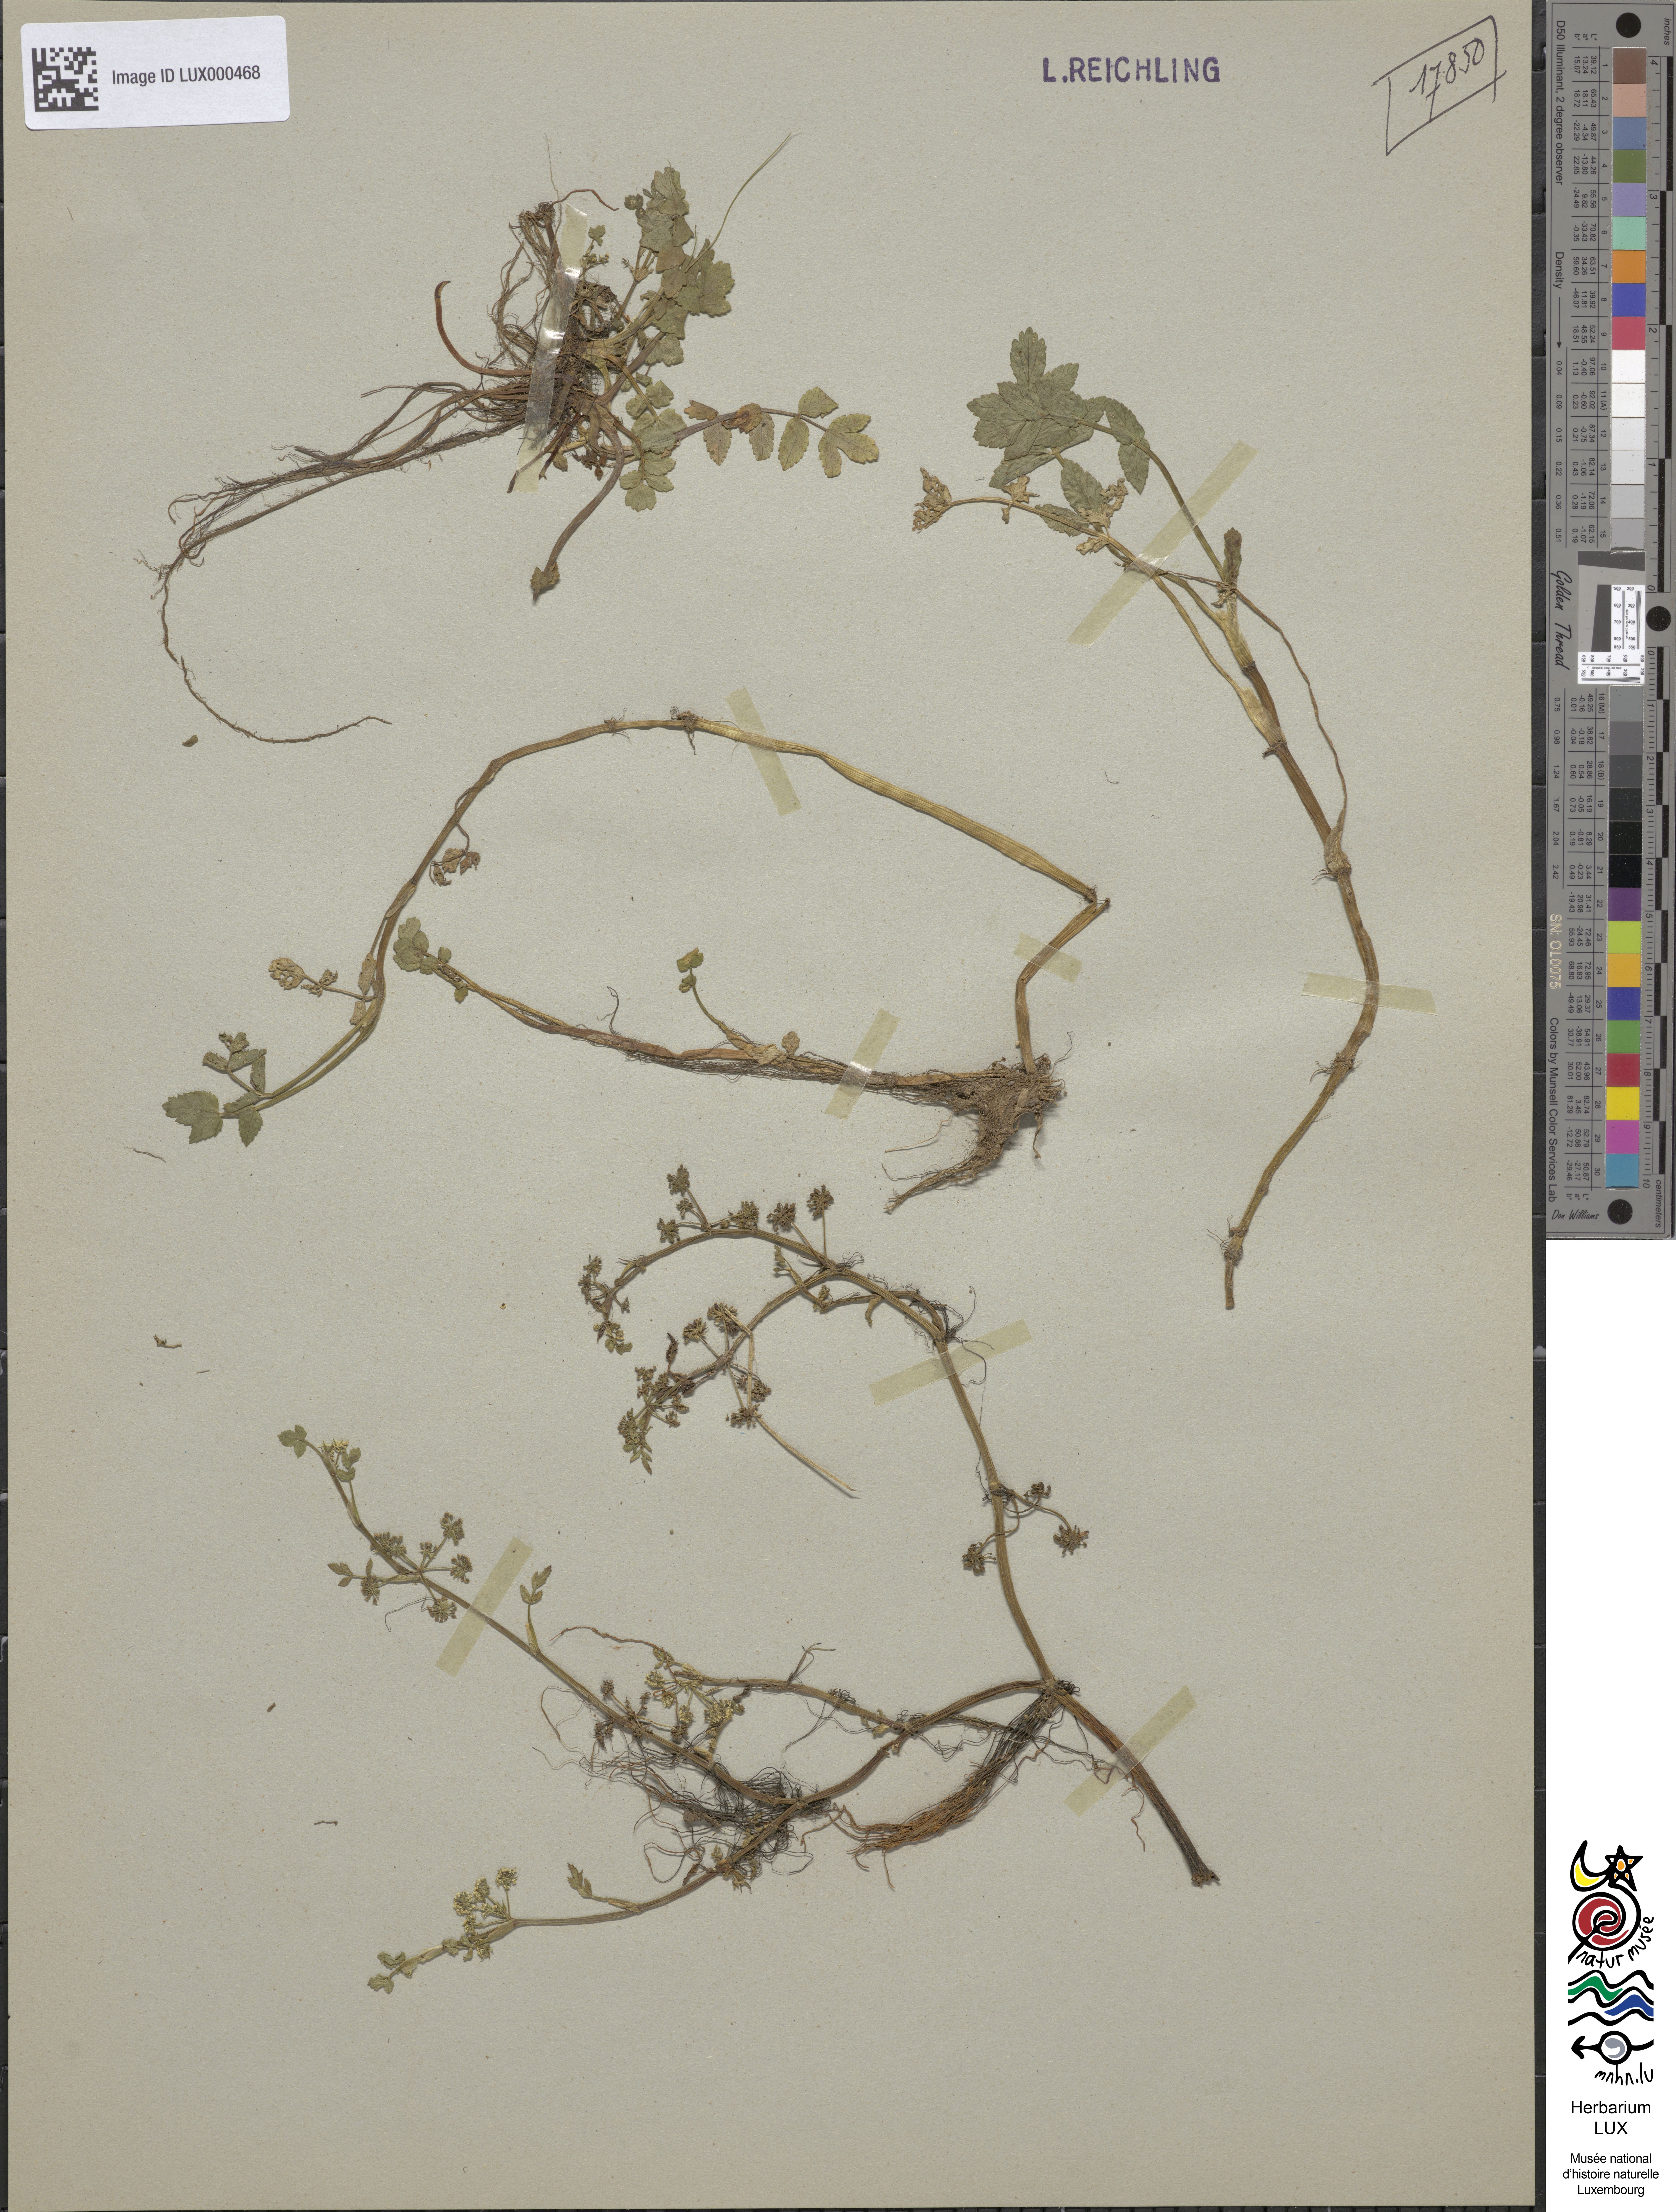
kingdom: Plantae
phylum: Tracheophyta
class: Magnoliopsida
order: Apiales
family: Apiaceae
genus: Helosciadium
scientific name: Helosciadium nodiflorum
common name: Fool's-watercress
